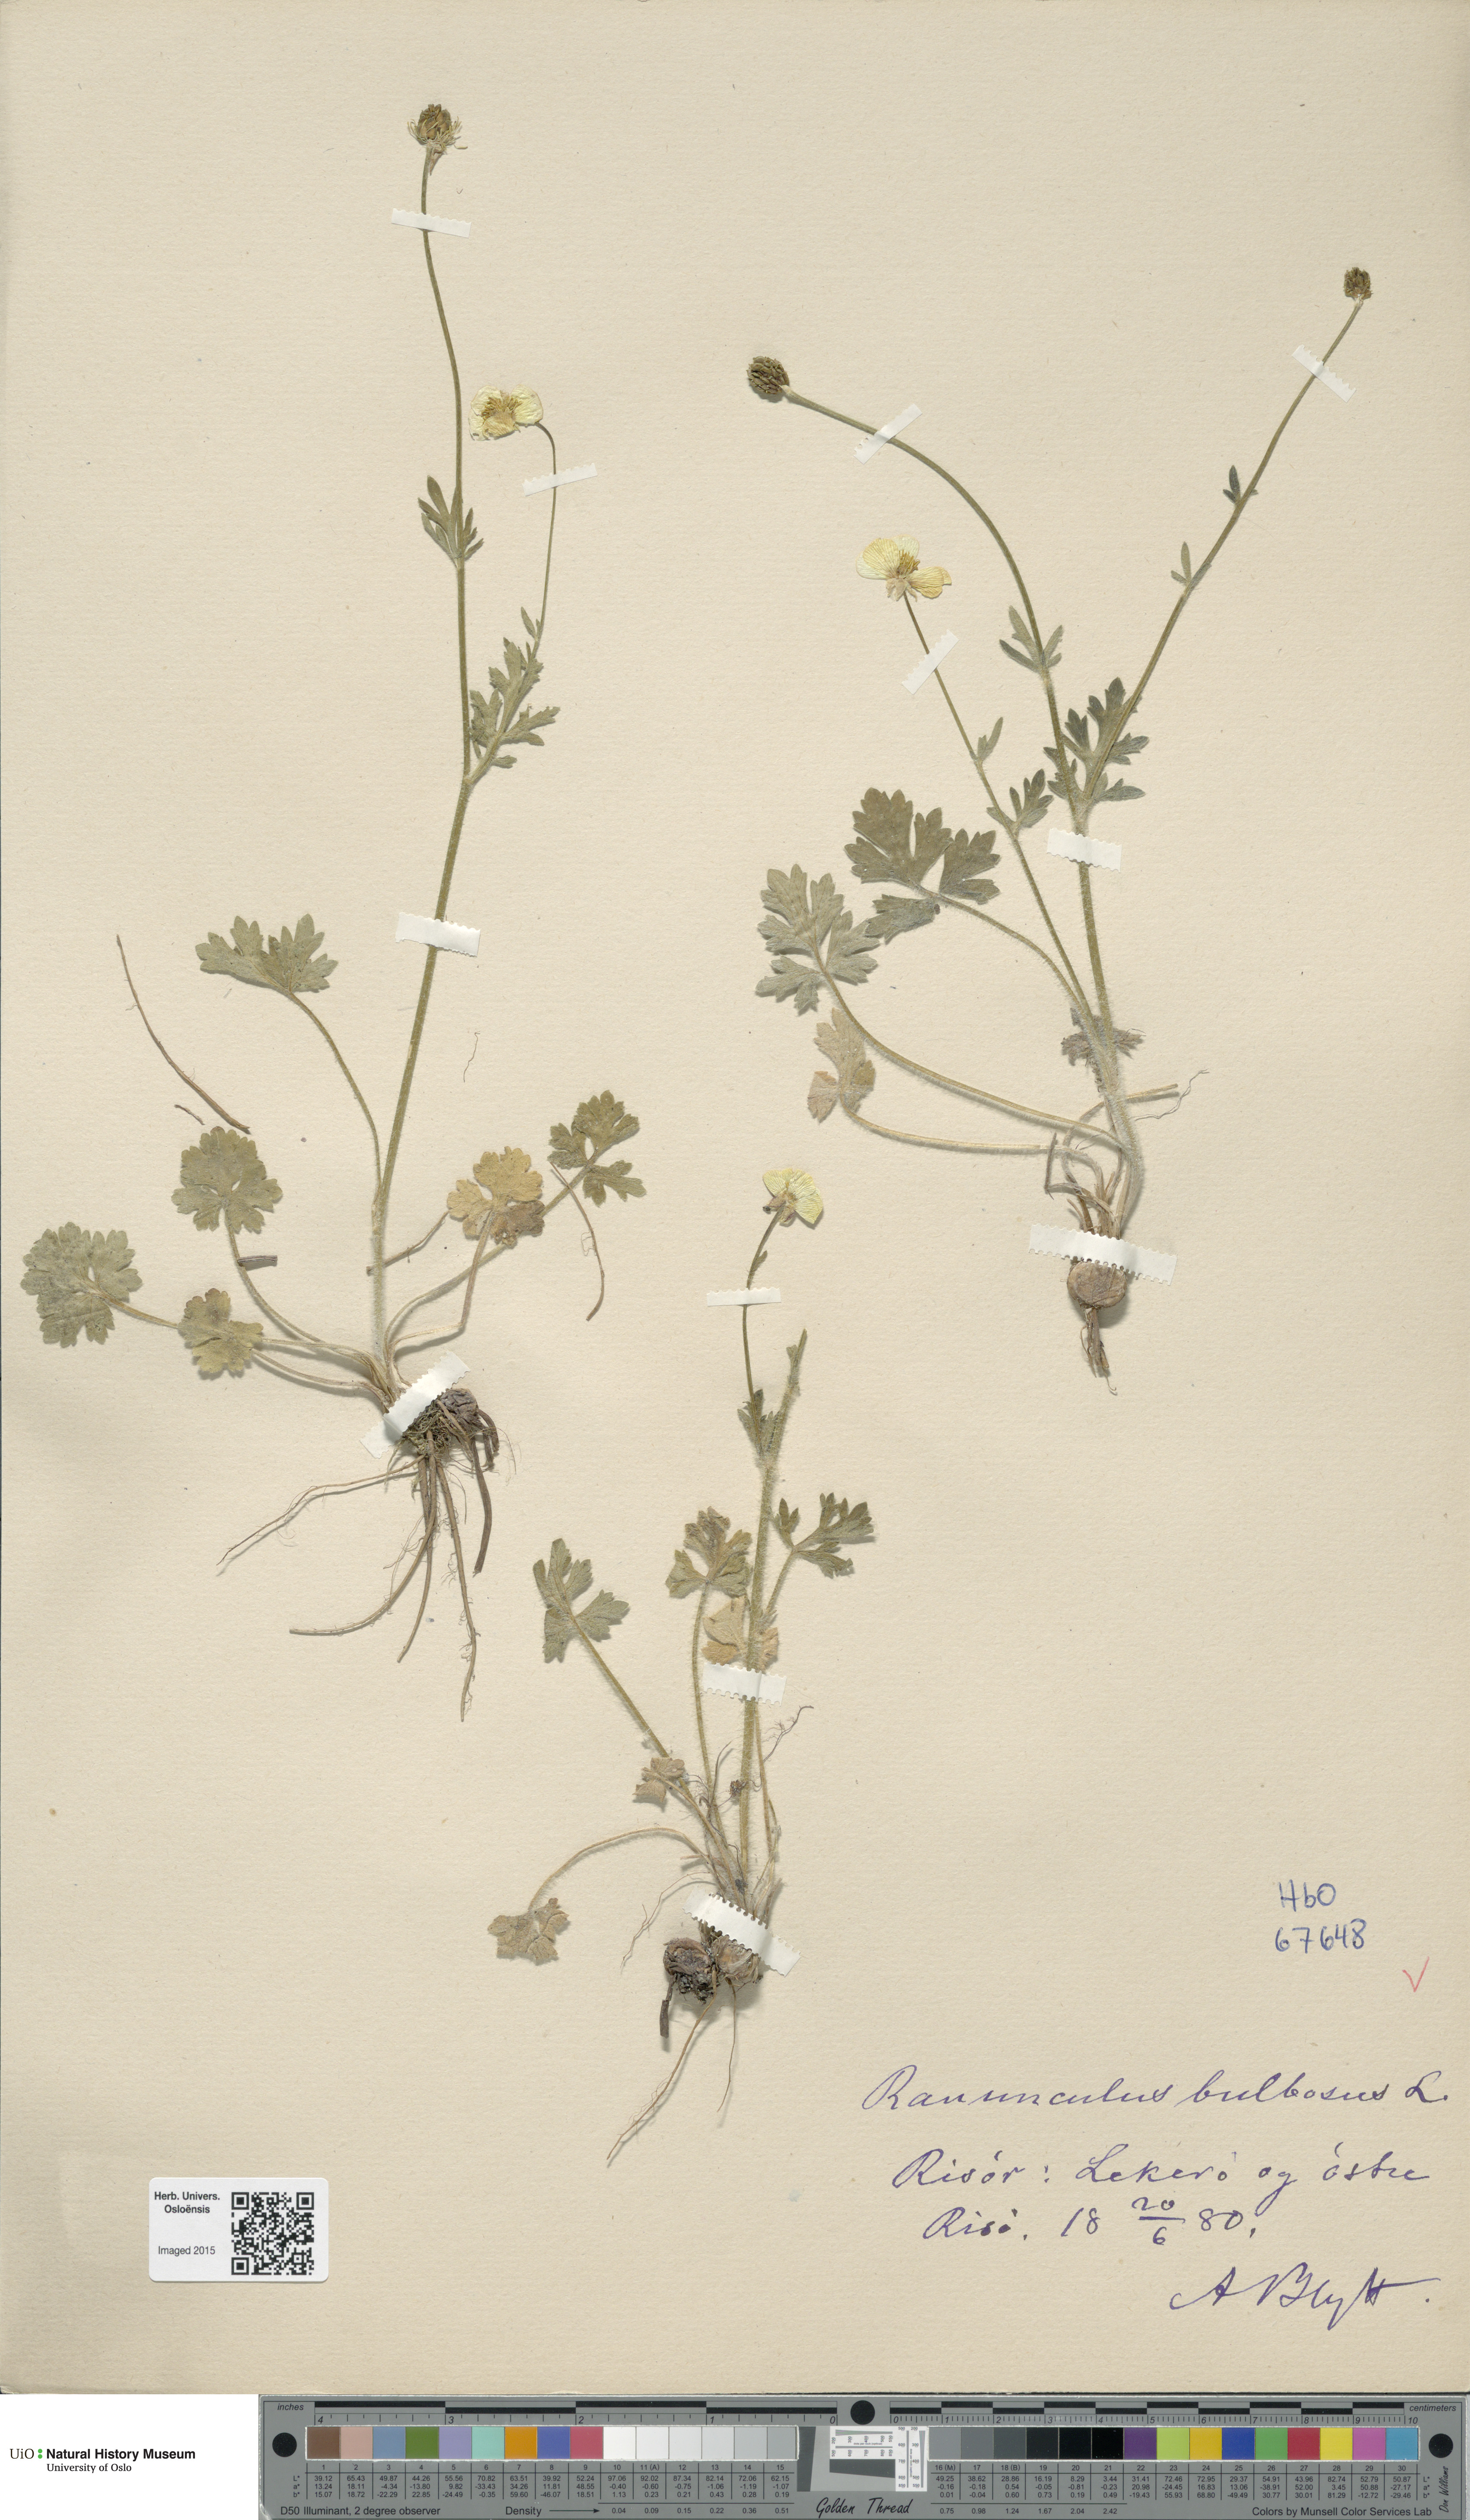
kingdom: Plantae
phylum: Tracheophyta
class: Magnoliopsida
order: Ranunculales
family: Ranunculaceae
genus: Ranunculus
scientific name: Ranunculus bulbosus
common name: Bulbous buttercup
